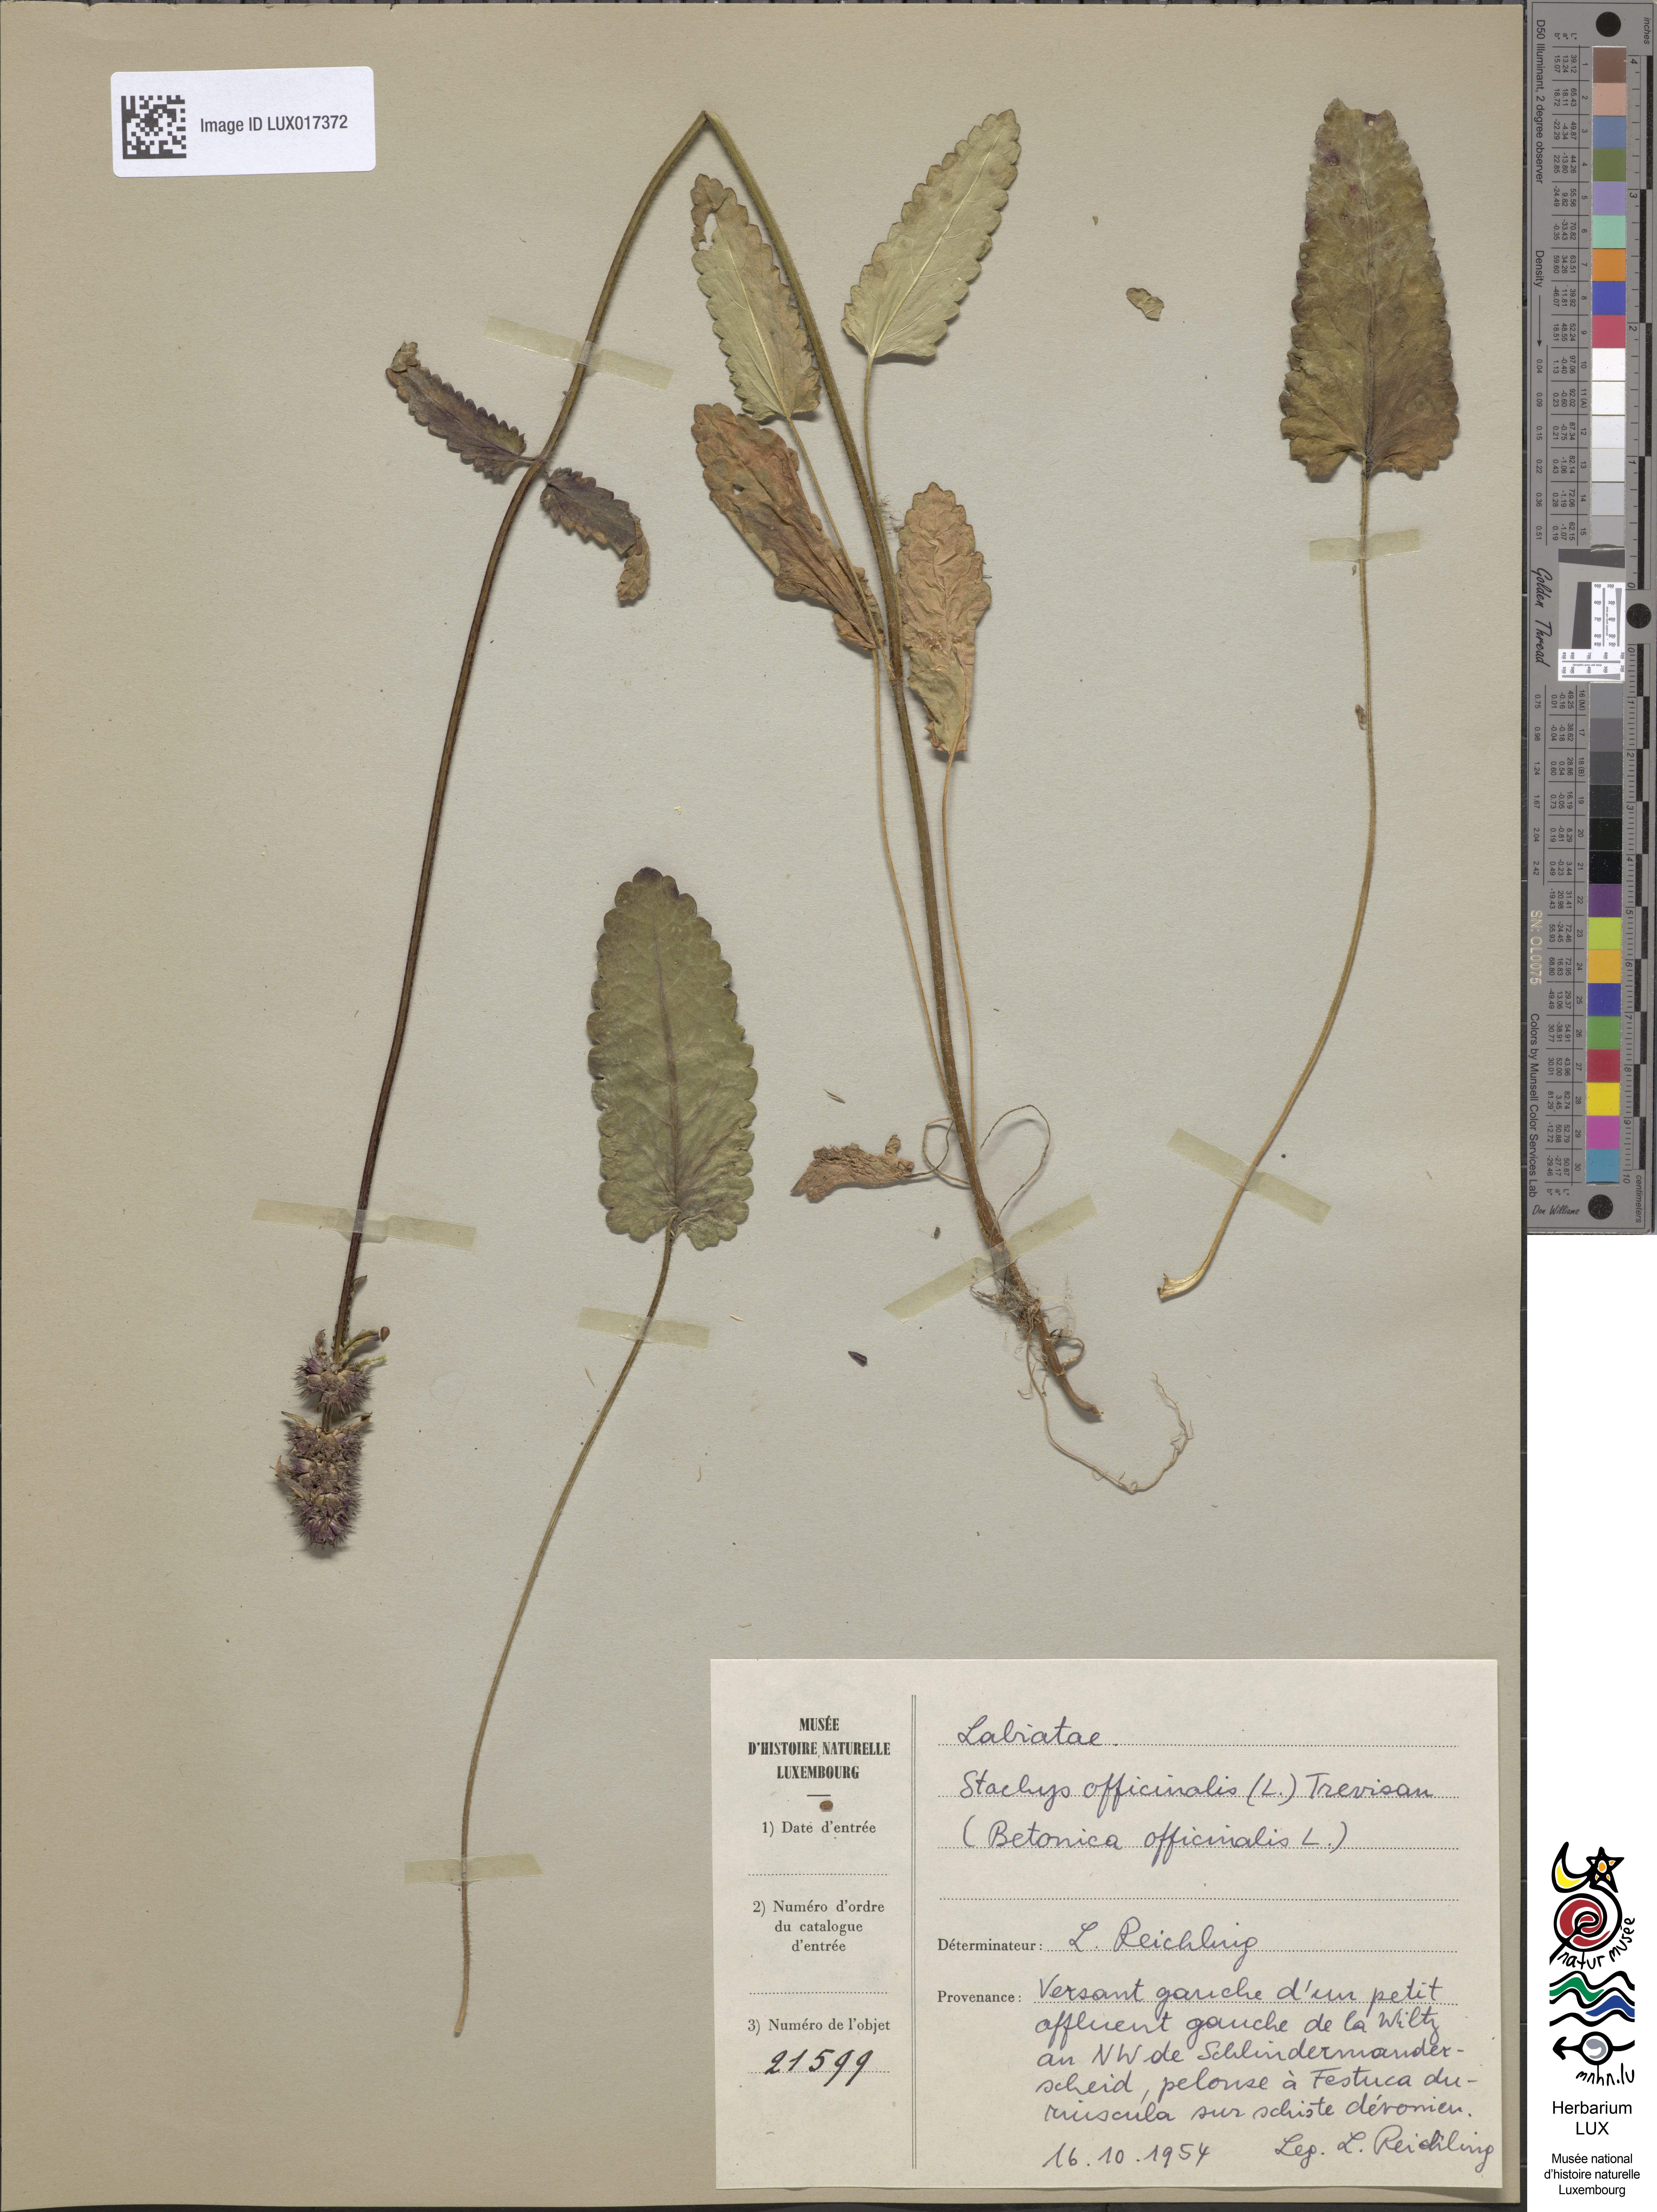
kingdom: Plantae
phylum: Tracheophyta
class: Magnoliopsida
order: Lamiales
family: Lamiaceae
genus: Betonica
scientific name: Betonica officinalis
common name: Bishop's-wort
